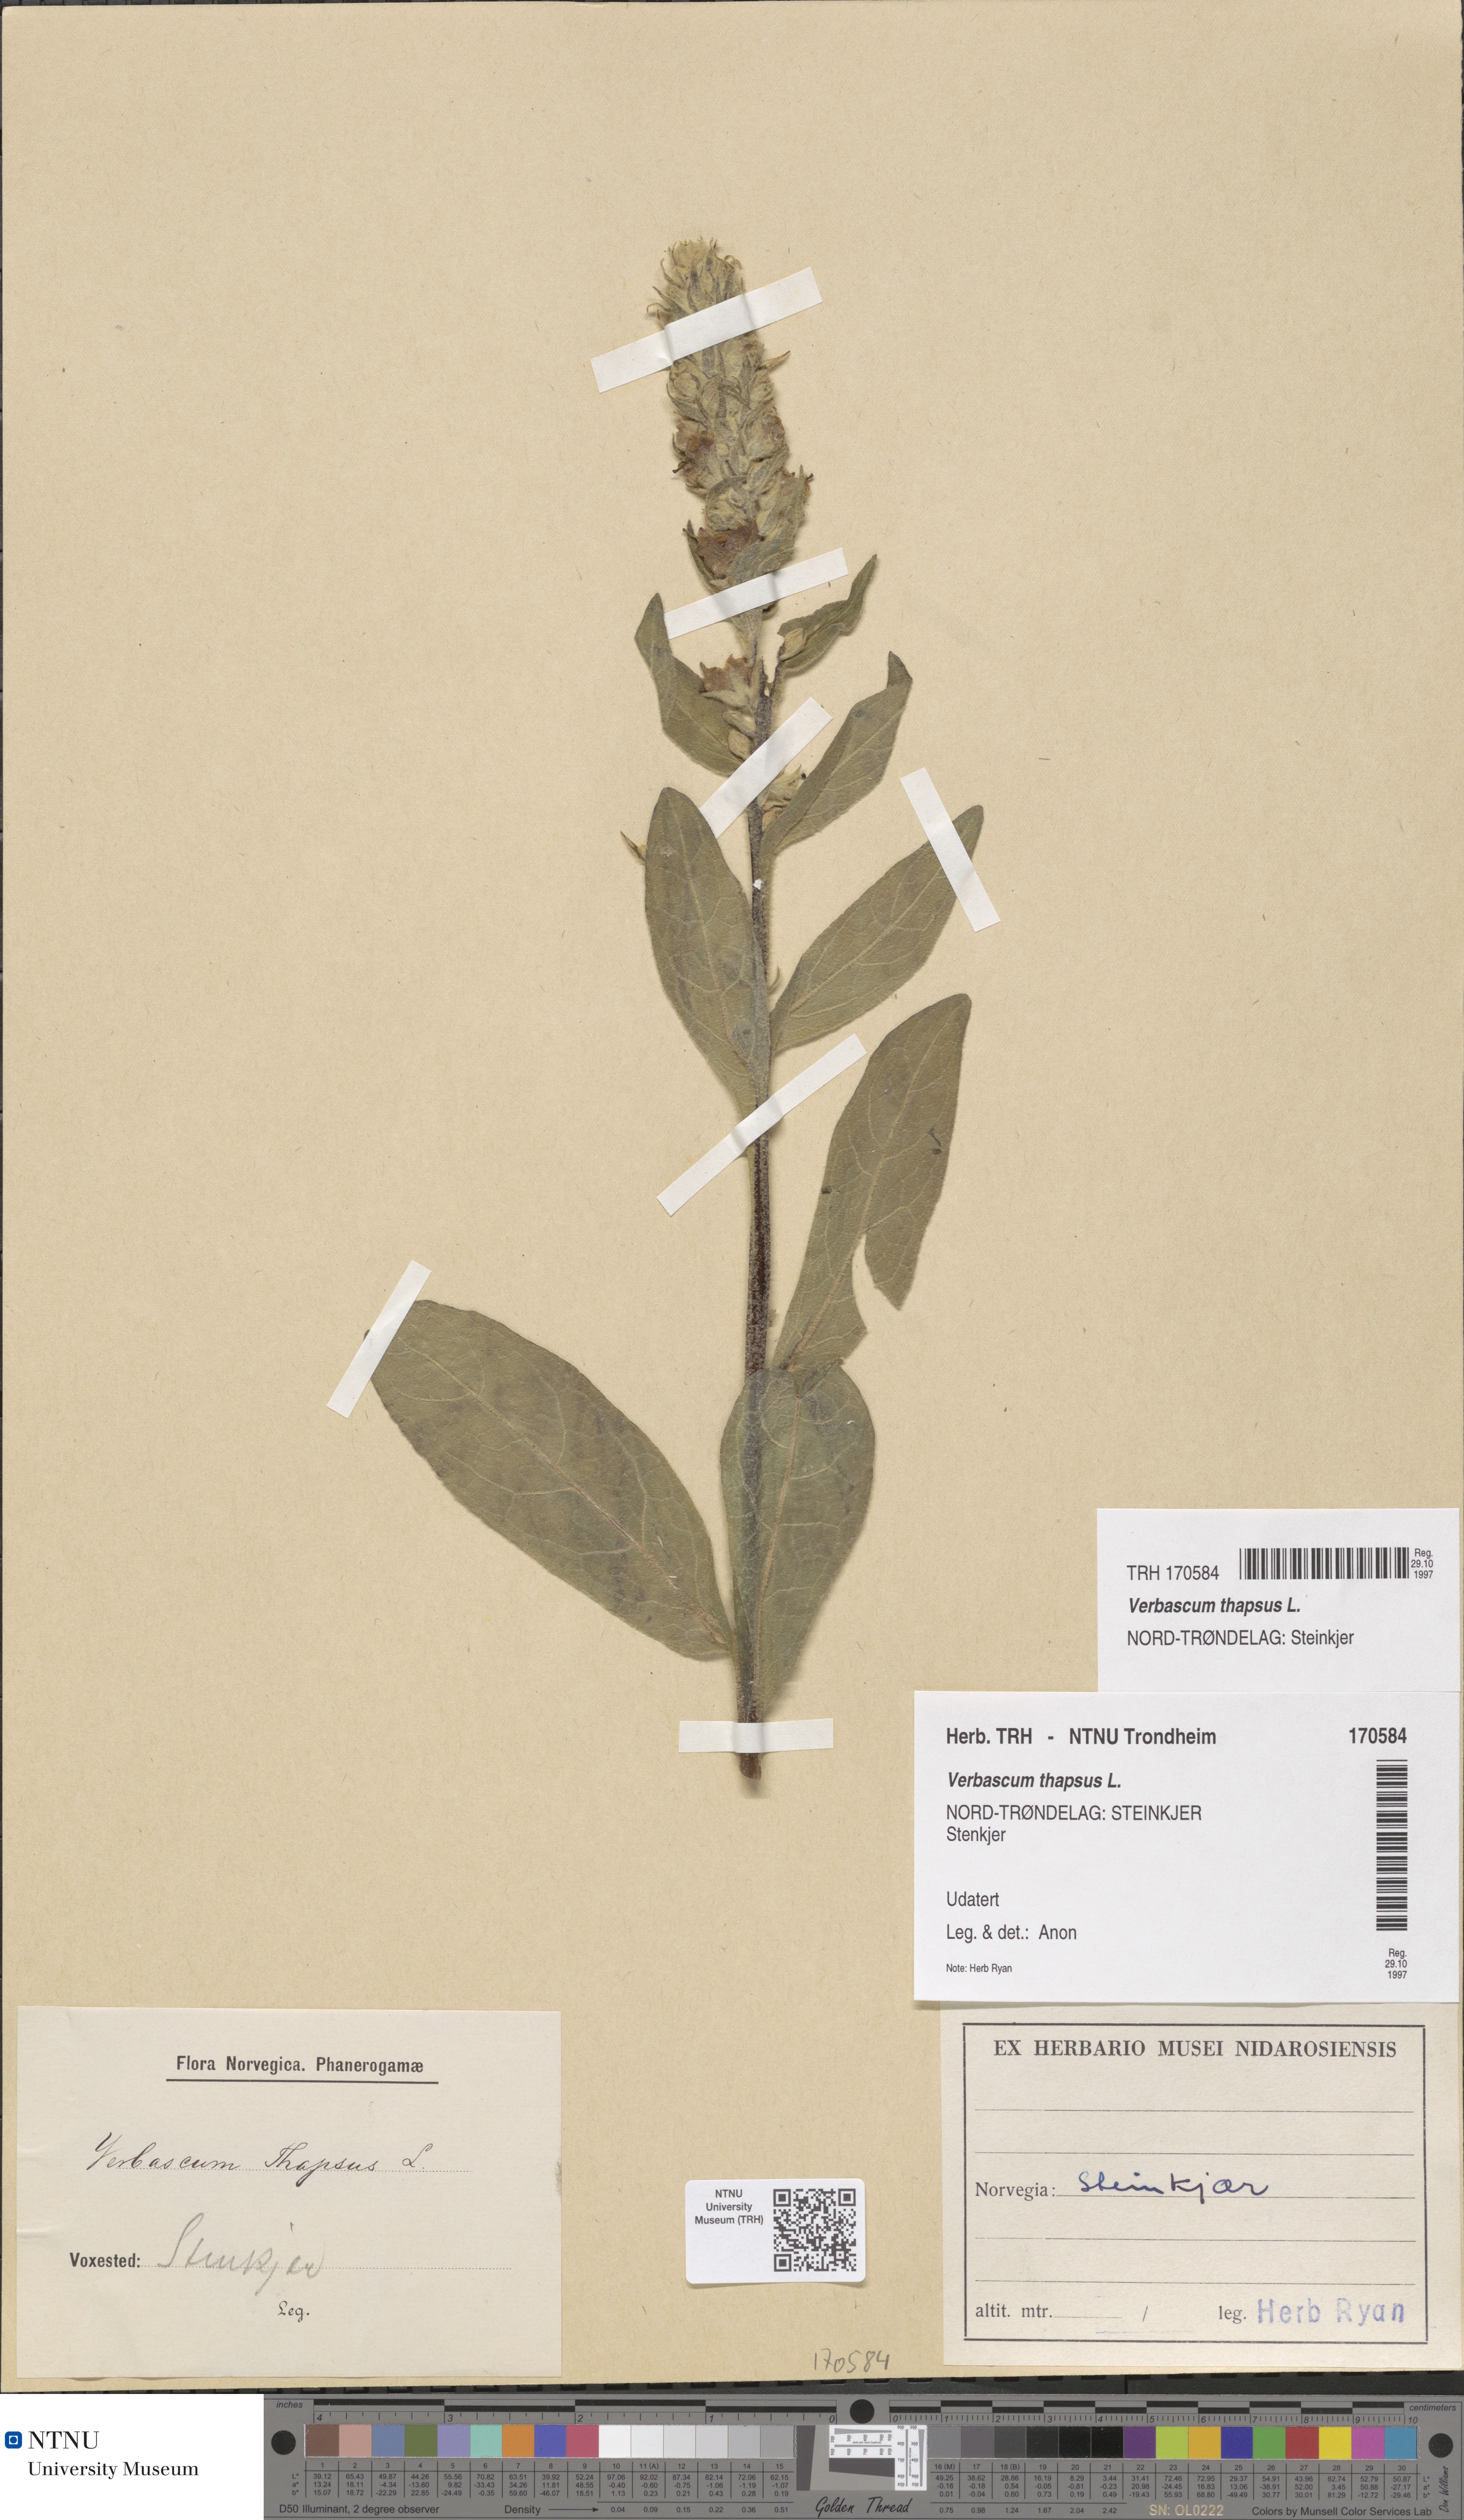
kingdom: Plantae
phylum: Tracheophyta
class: Magnoliopsida
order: Lamiales
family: Scrophulariaceae
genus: Verbascum
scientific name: Verbascum thapsus
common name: Common mullein
